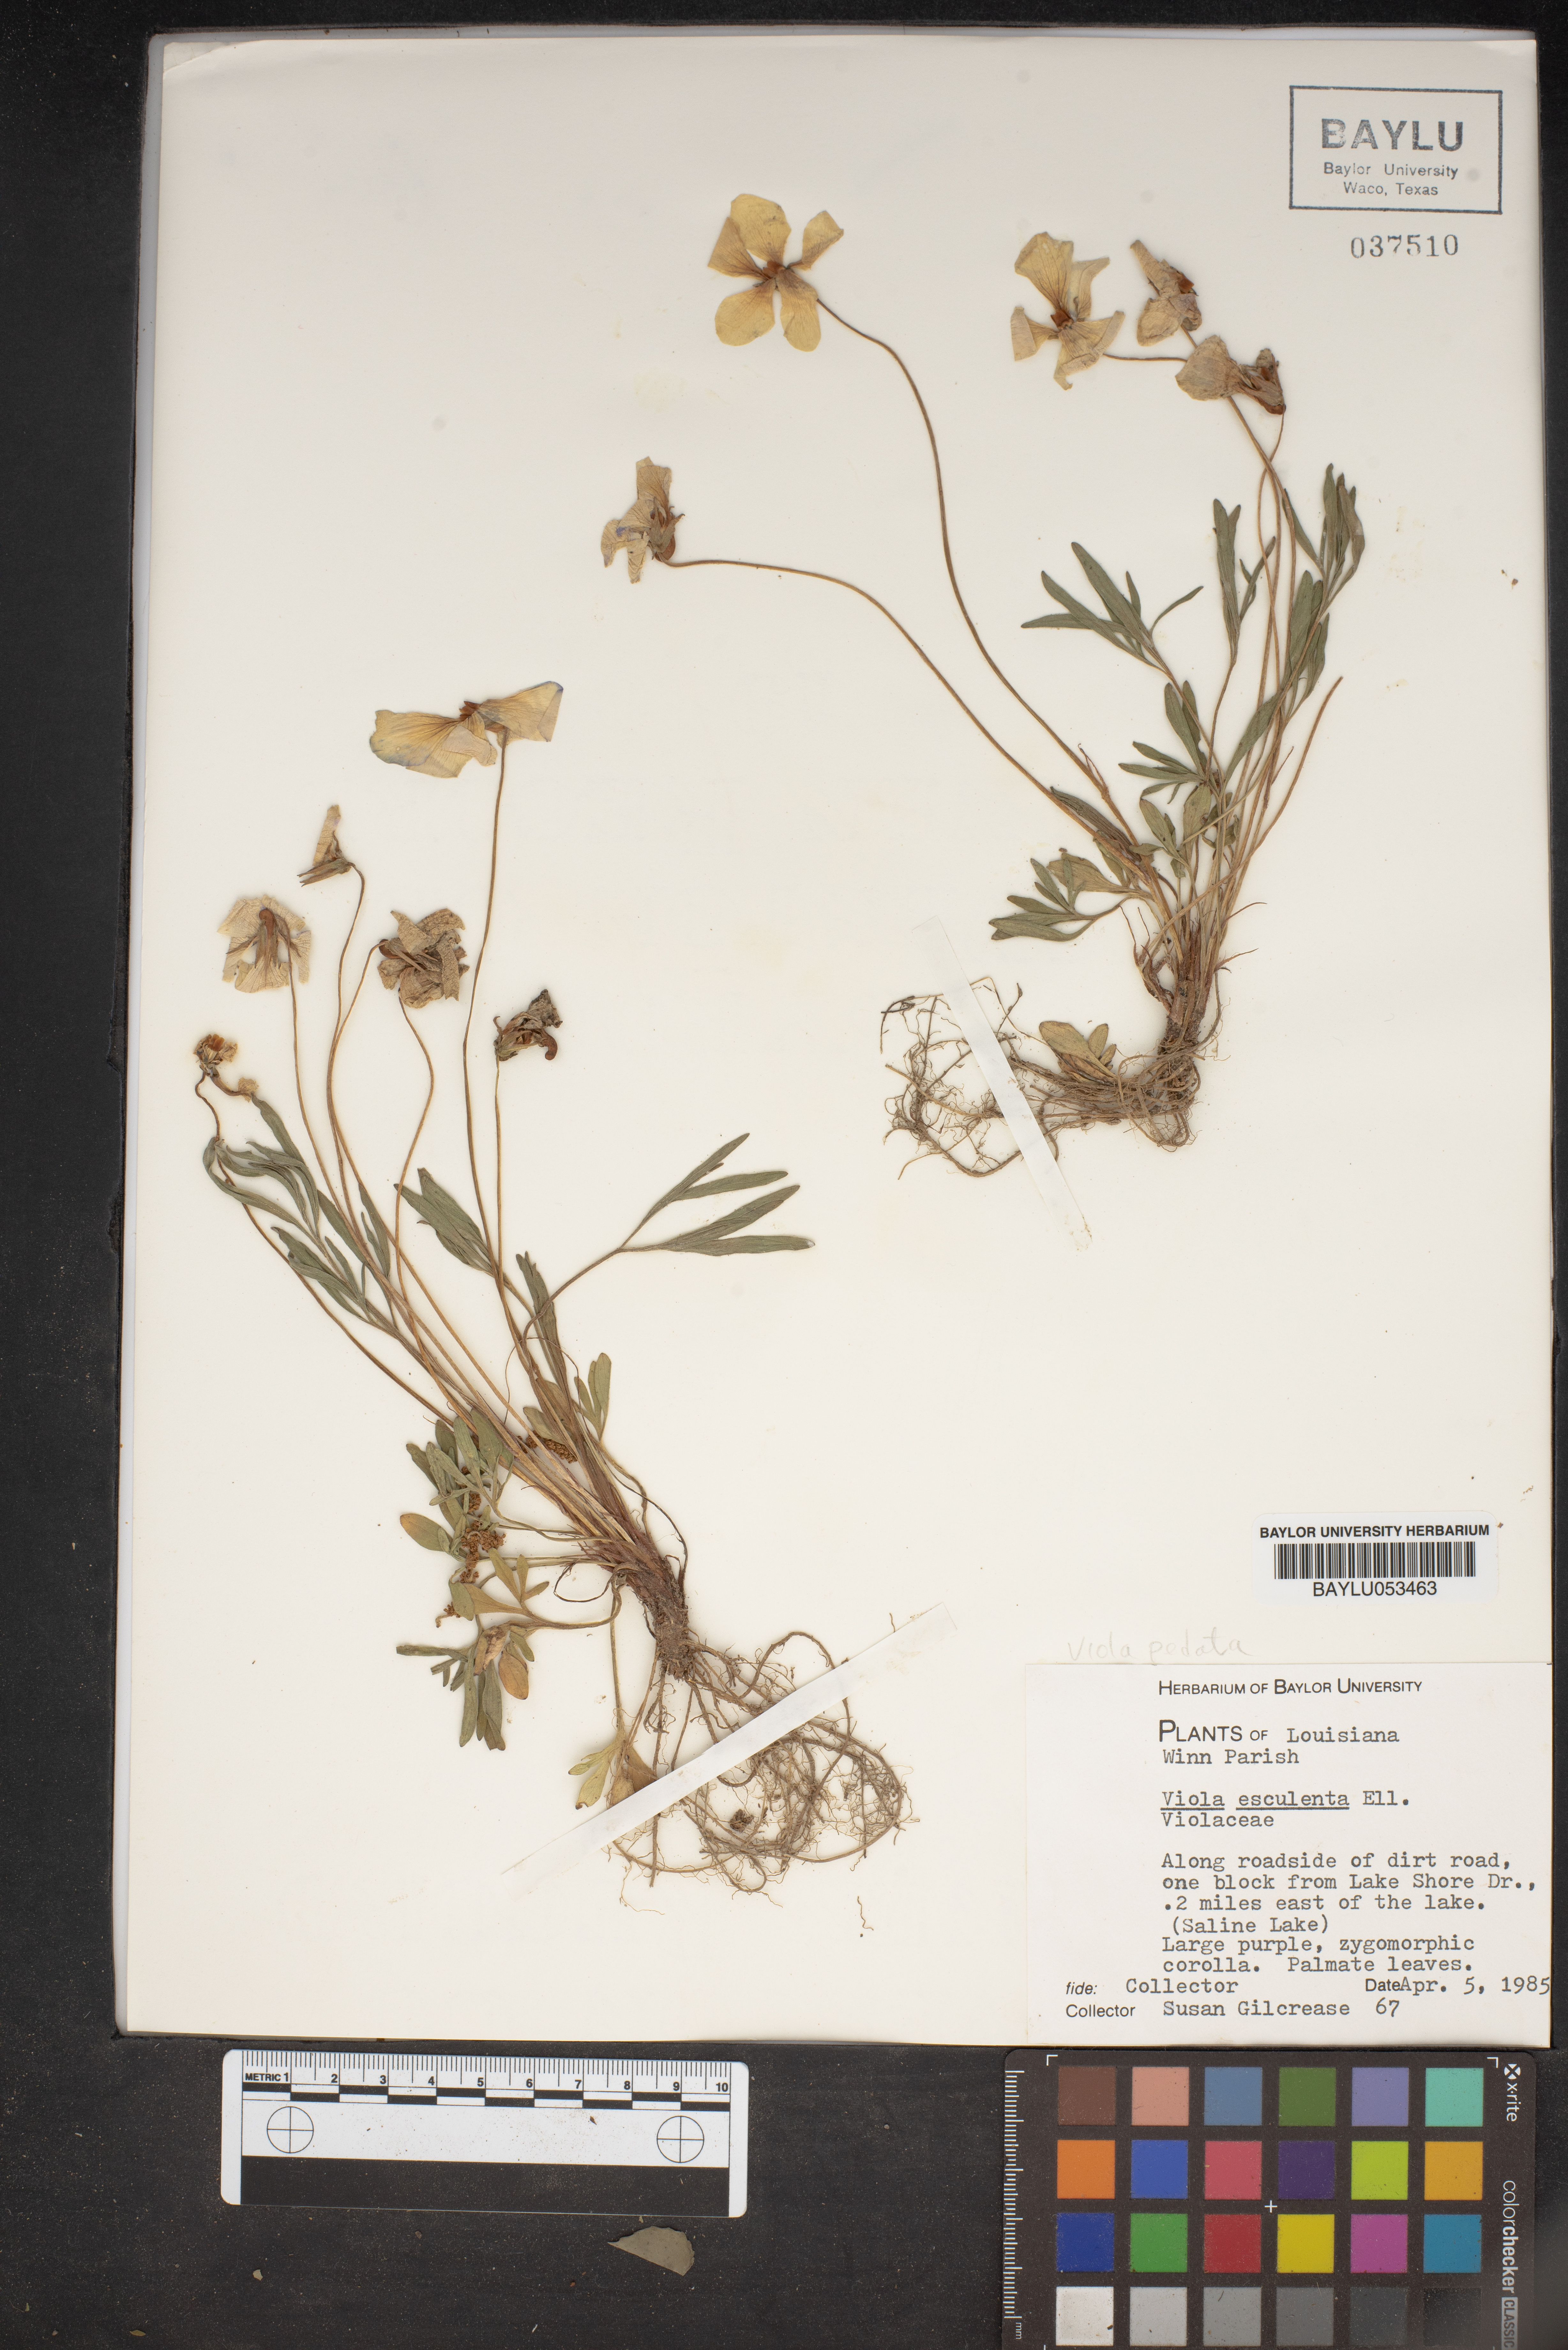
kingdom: Plantae
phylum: Tracheophyta
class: Magnoliopsida
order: Malpighiales
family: Violaceae
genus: Viola
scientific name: Viola pedata
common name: Pansy violet
